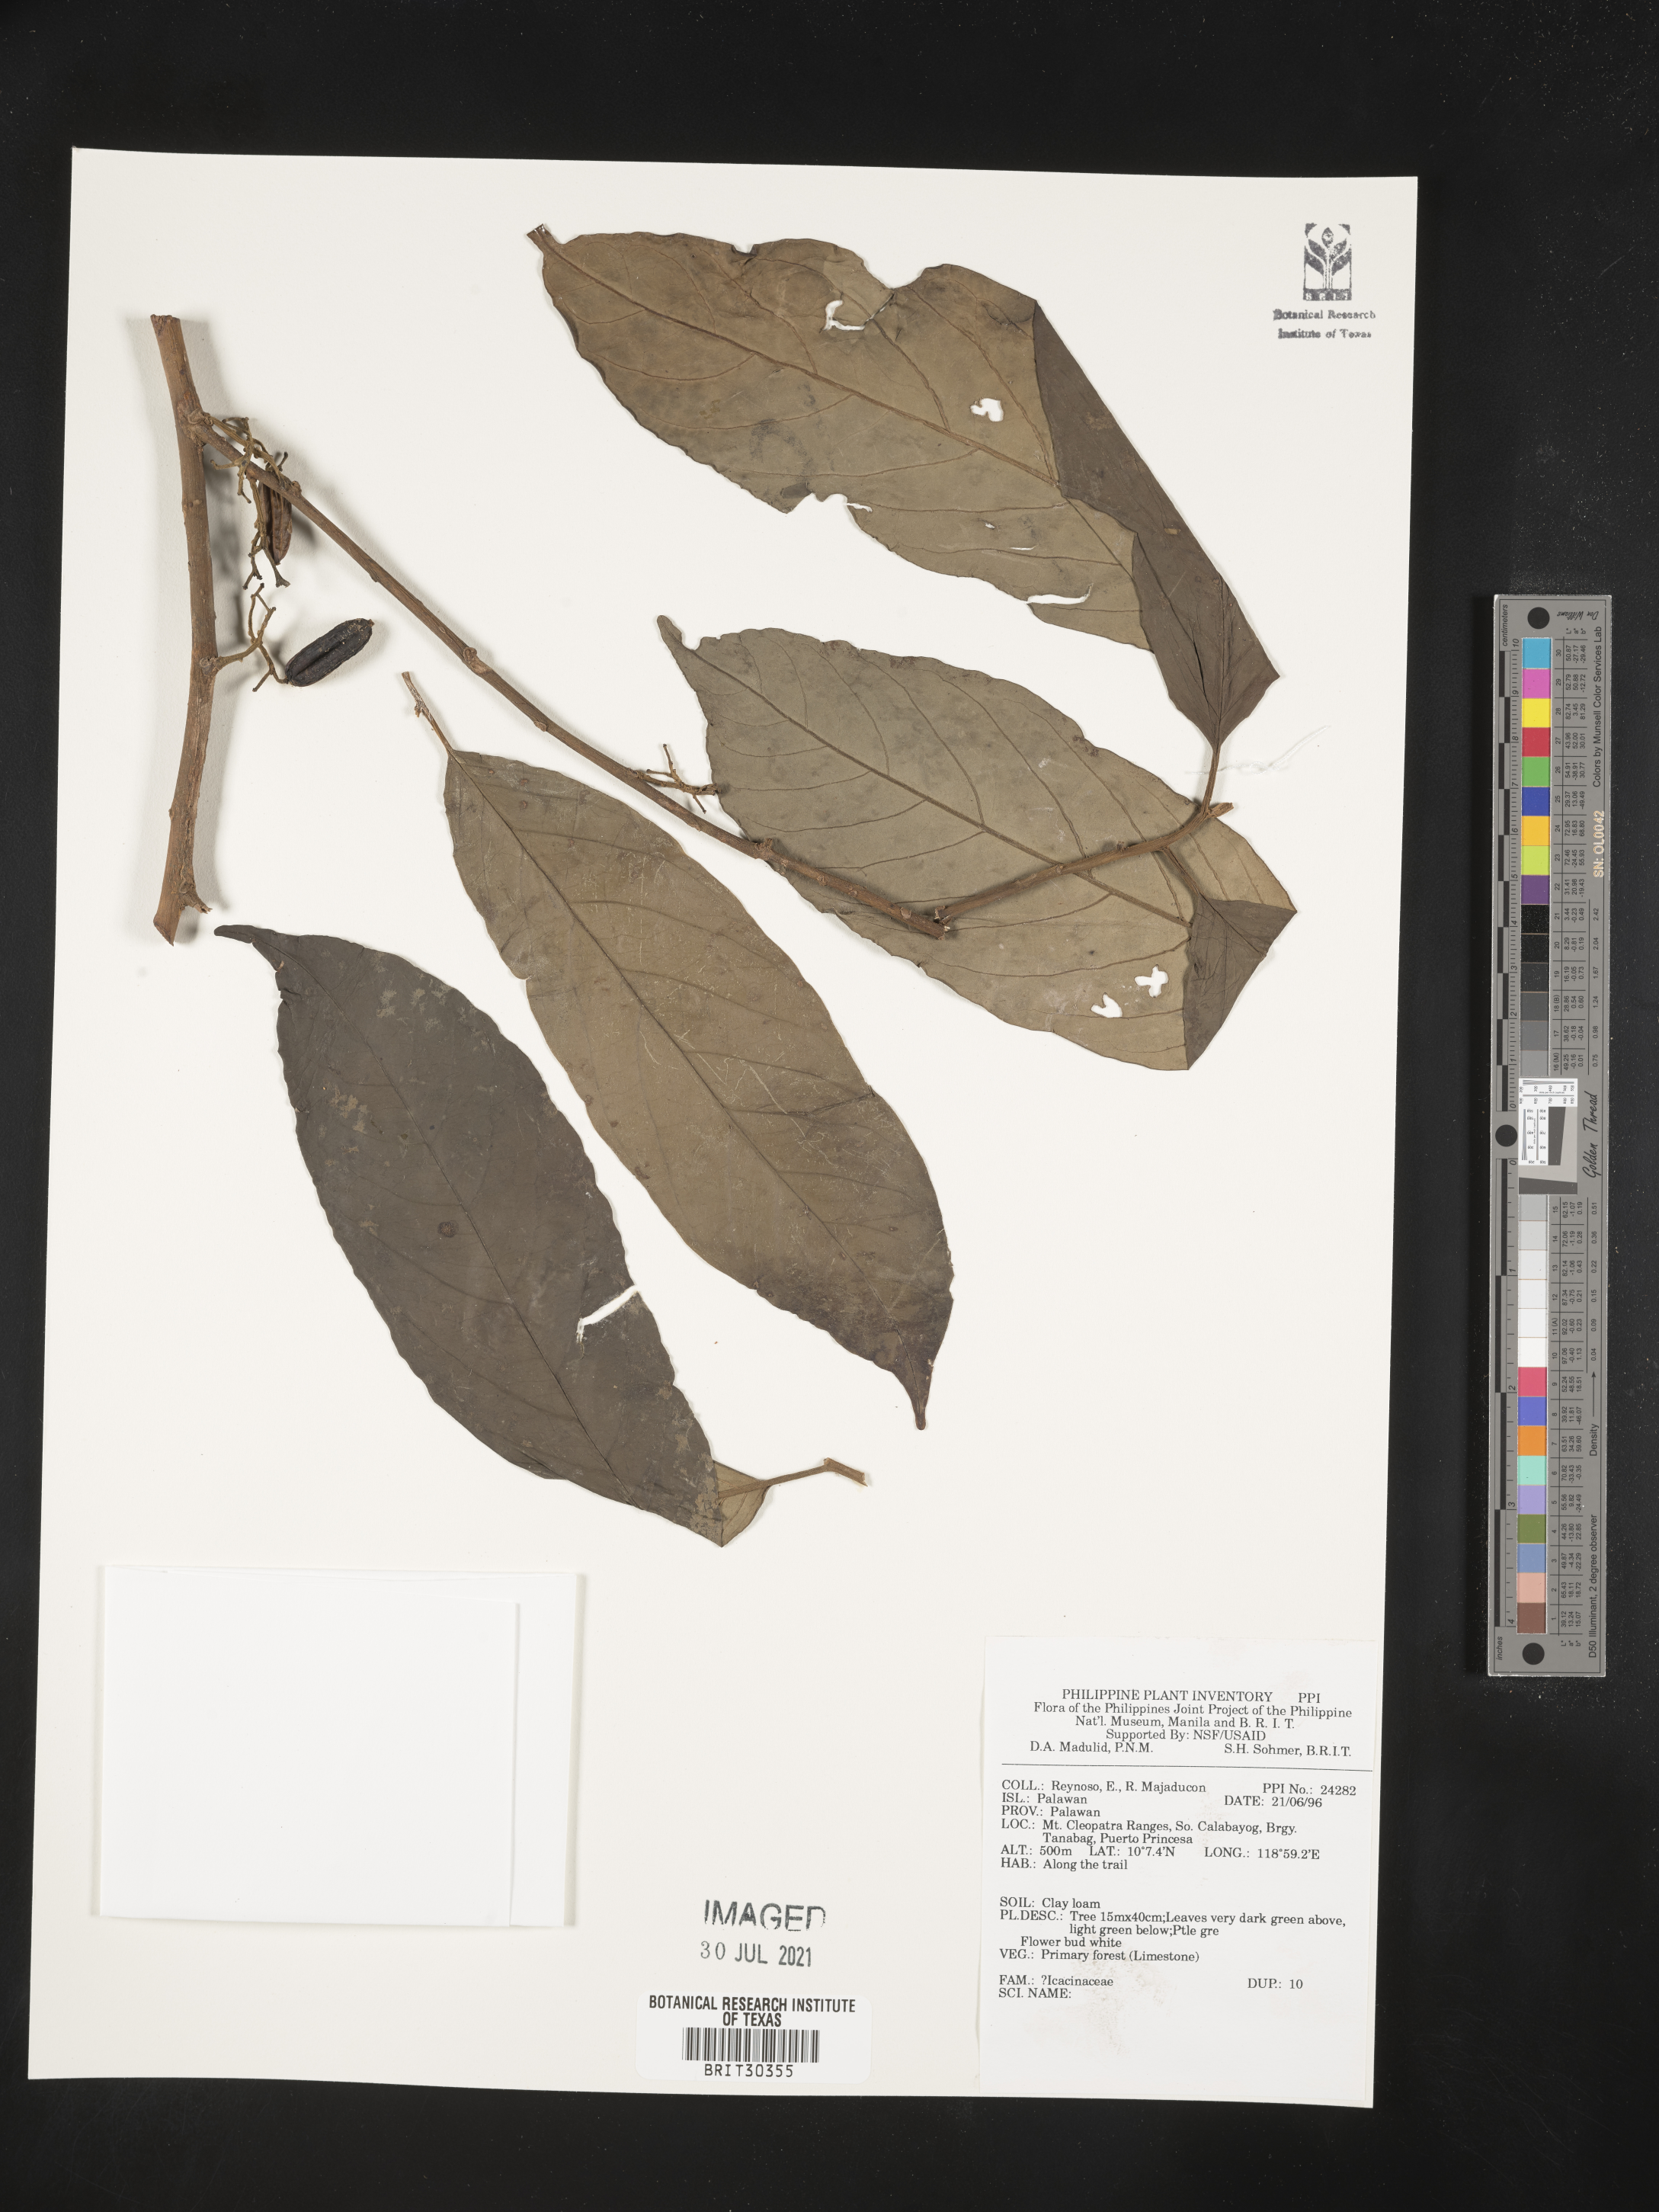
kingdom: Plantae
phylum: Tracheophyta
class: Magnoliopsida
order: Icacinales
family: Icacinaceae
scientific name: Icacinaceae
